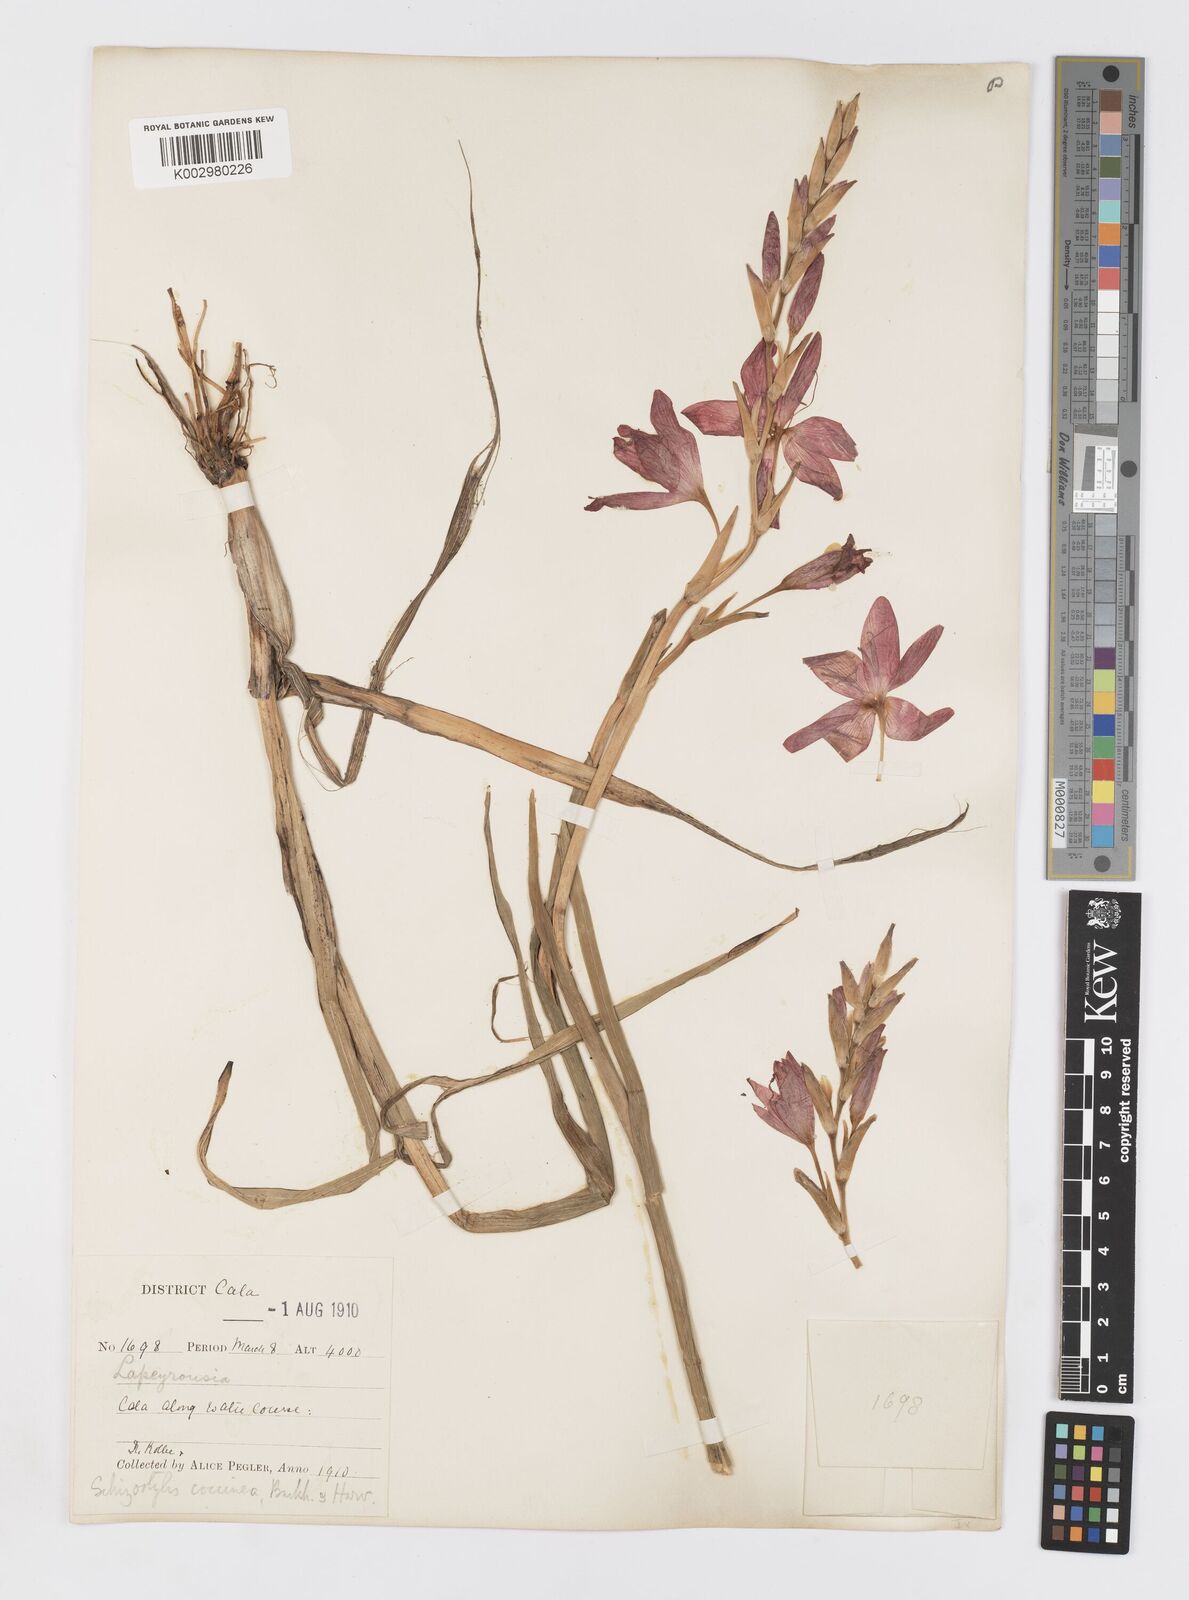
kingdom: Plantae
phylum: Tracheophyta
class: Liliopsida
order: Asparagales
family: Iridaceae
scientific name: Iridaceae
